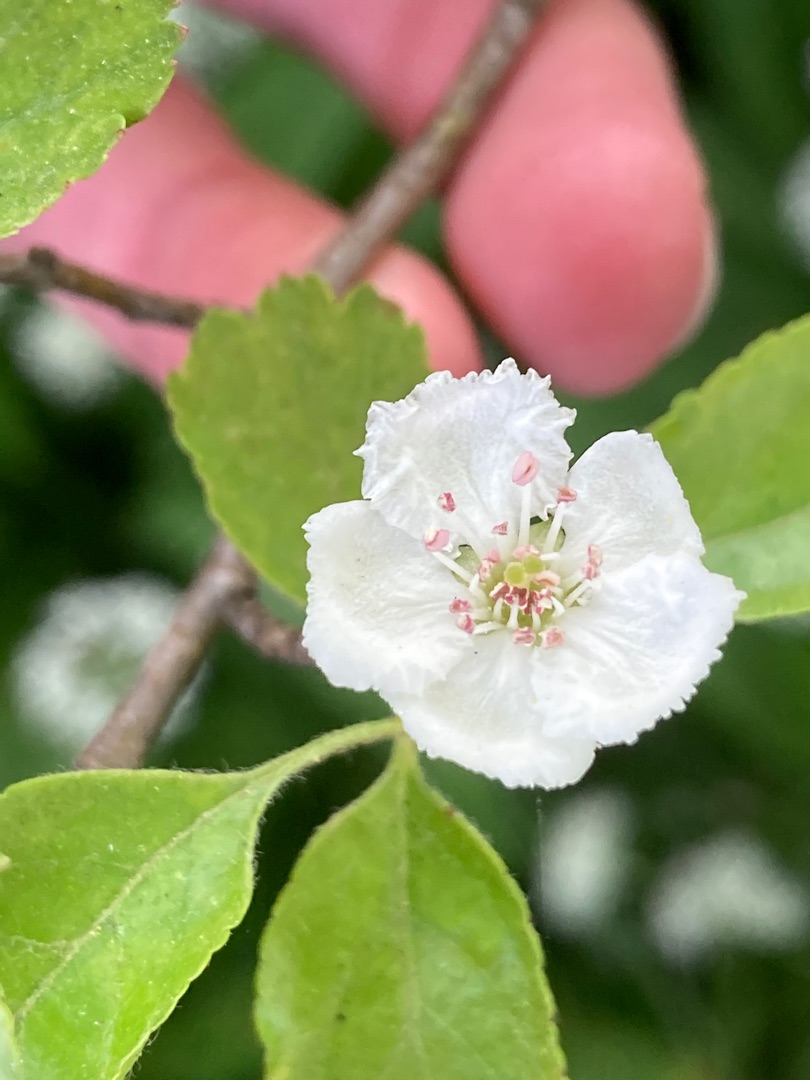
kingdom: Plantae
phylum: Tracheophyta
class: Magnoliopsida
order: Rosales
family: Rosaceae
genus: Crataegus
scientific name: Crataegus laevigata
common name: Almindelig hvidtjørn
